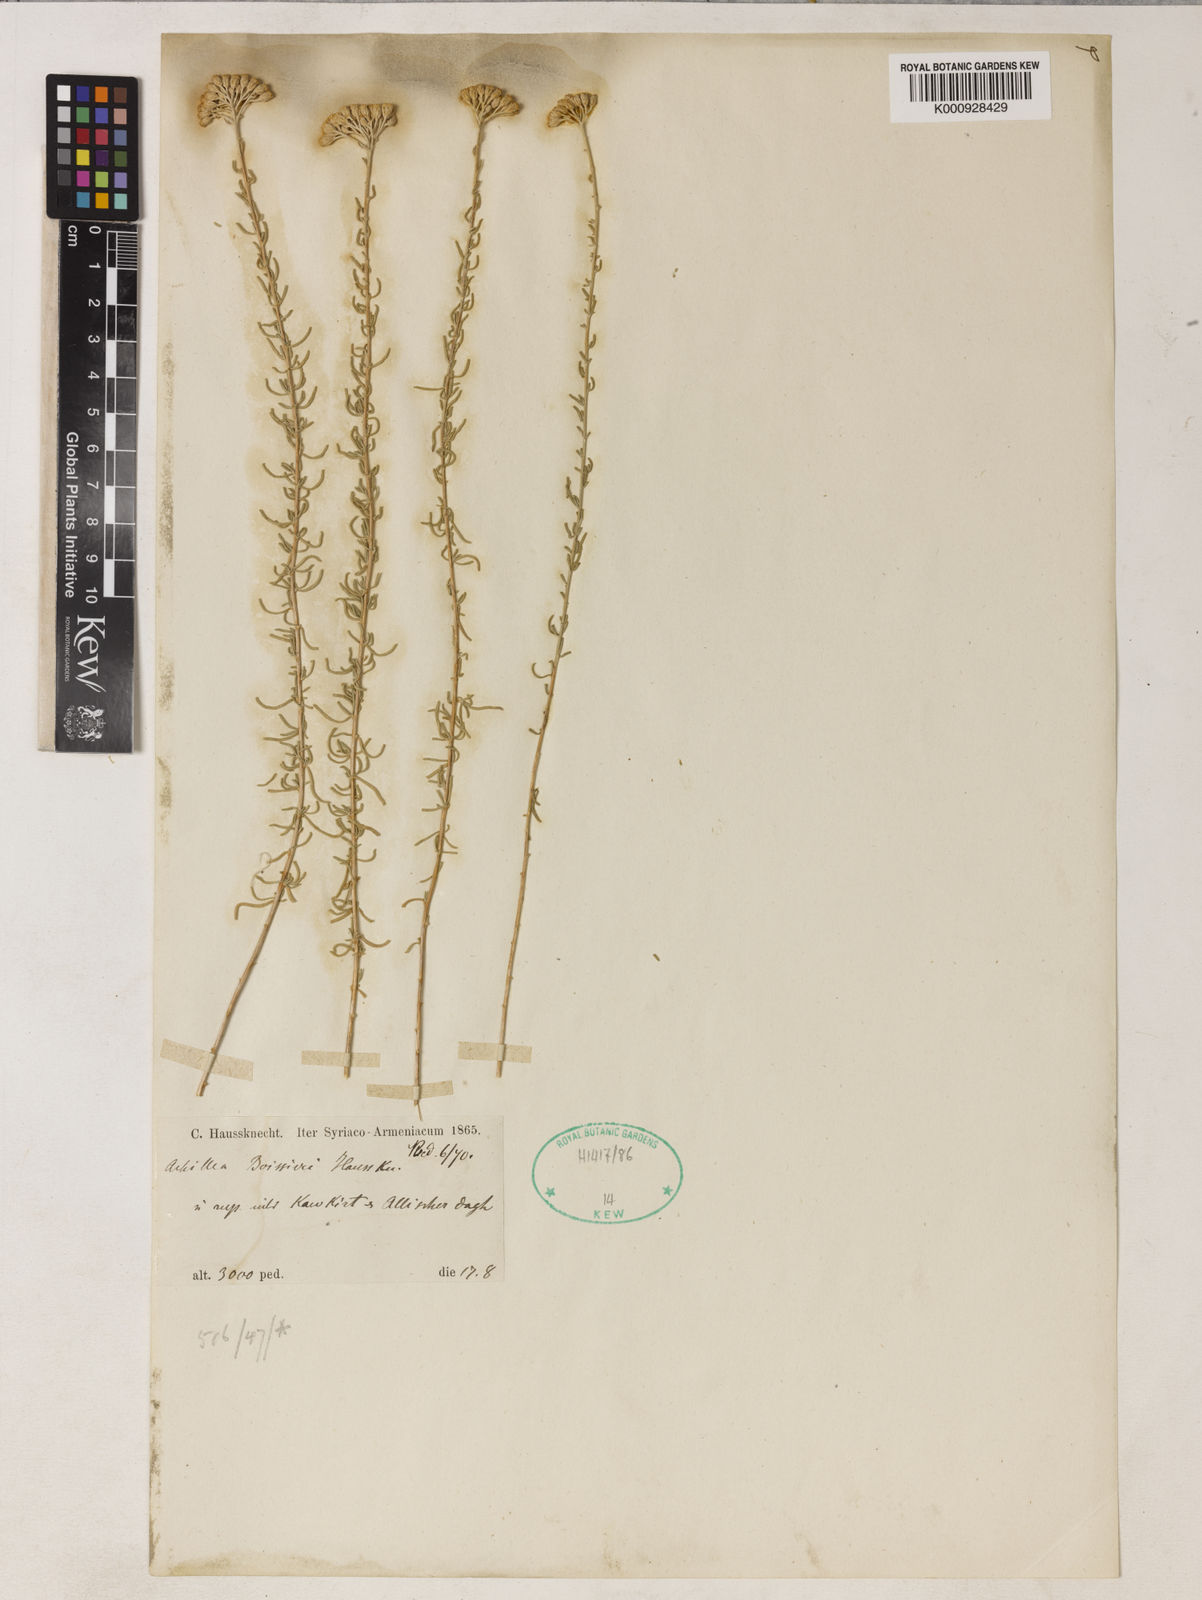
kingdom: Plantae
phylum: Tracheophyta
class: Magnoliopsida
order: Asterales
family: Asteraceae
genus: Achillea
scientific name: Achillea boissieri
